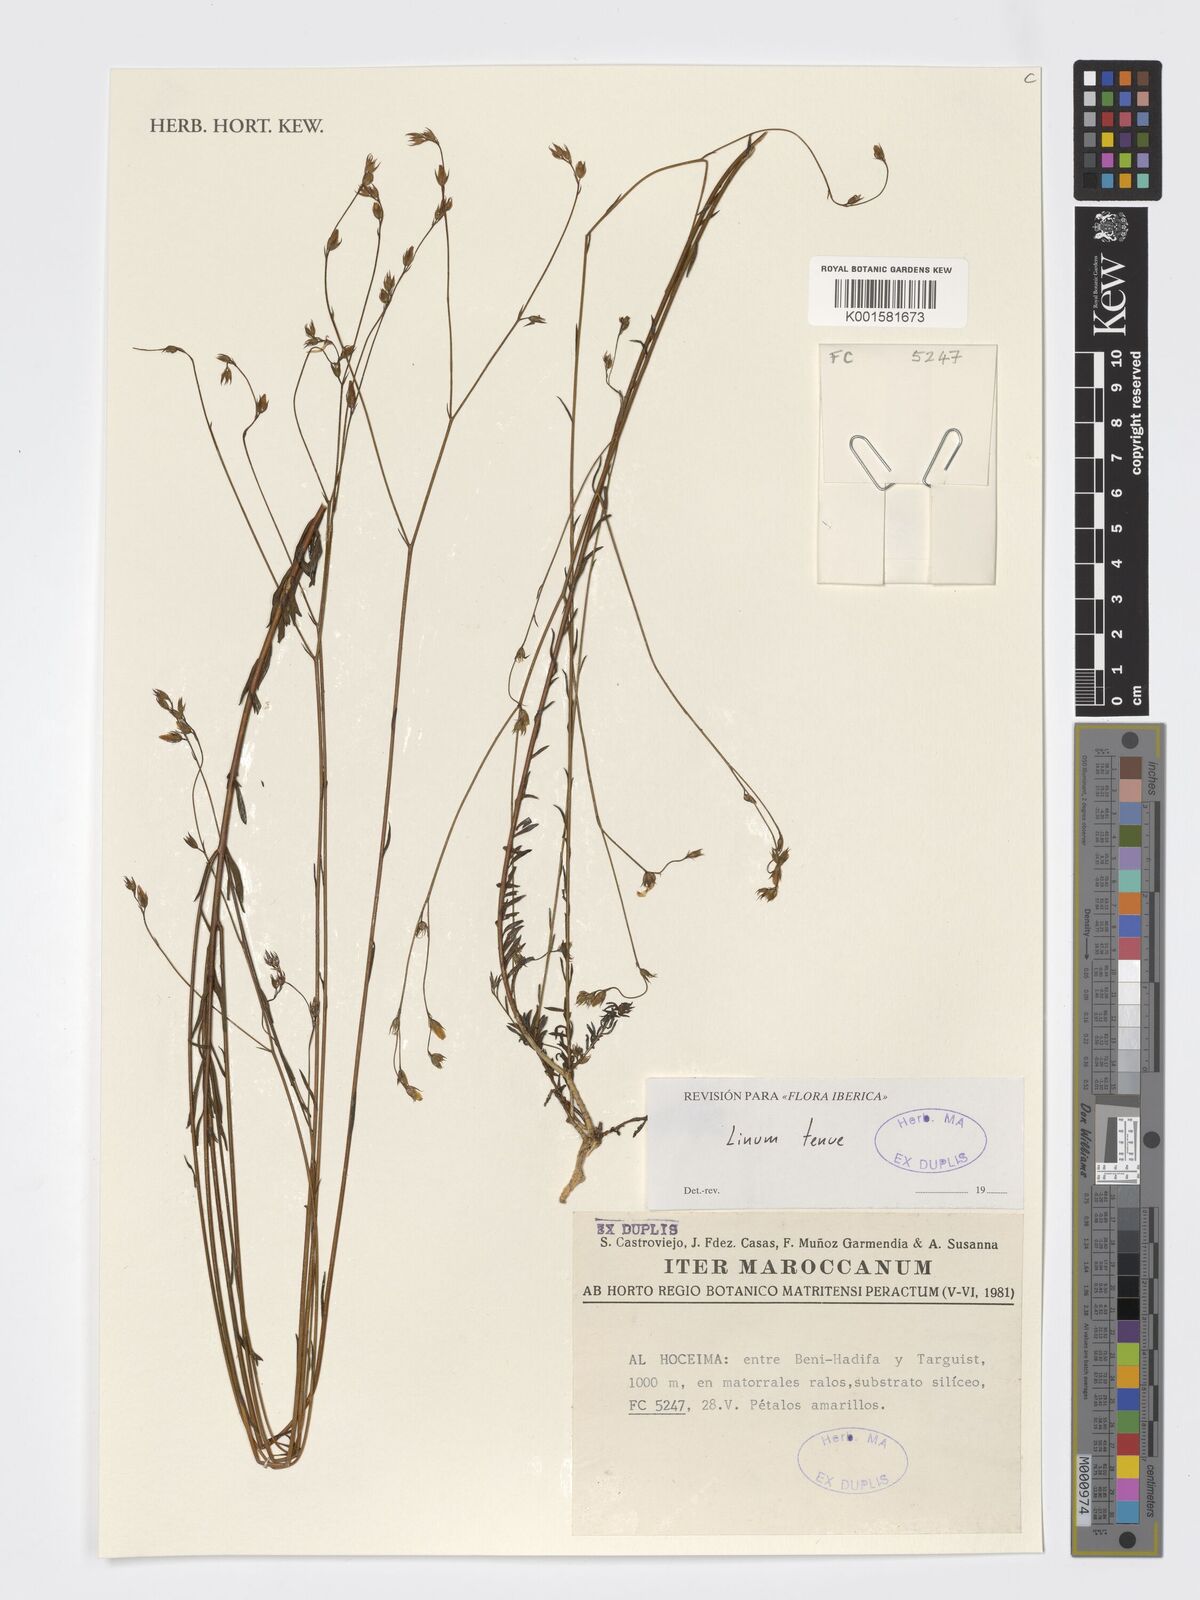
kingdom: Plantae
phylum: Tracheophyta
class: Magnoliopsida
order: Malpighiales
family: Linaceae
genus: Linum
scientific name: Linum tenue
